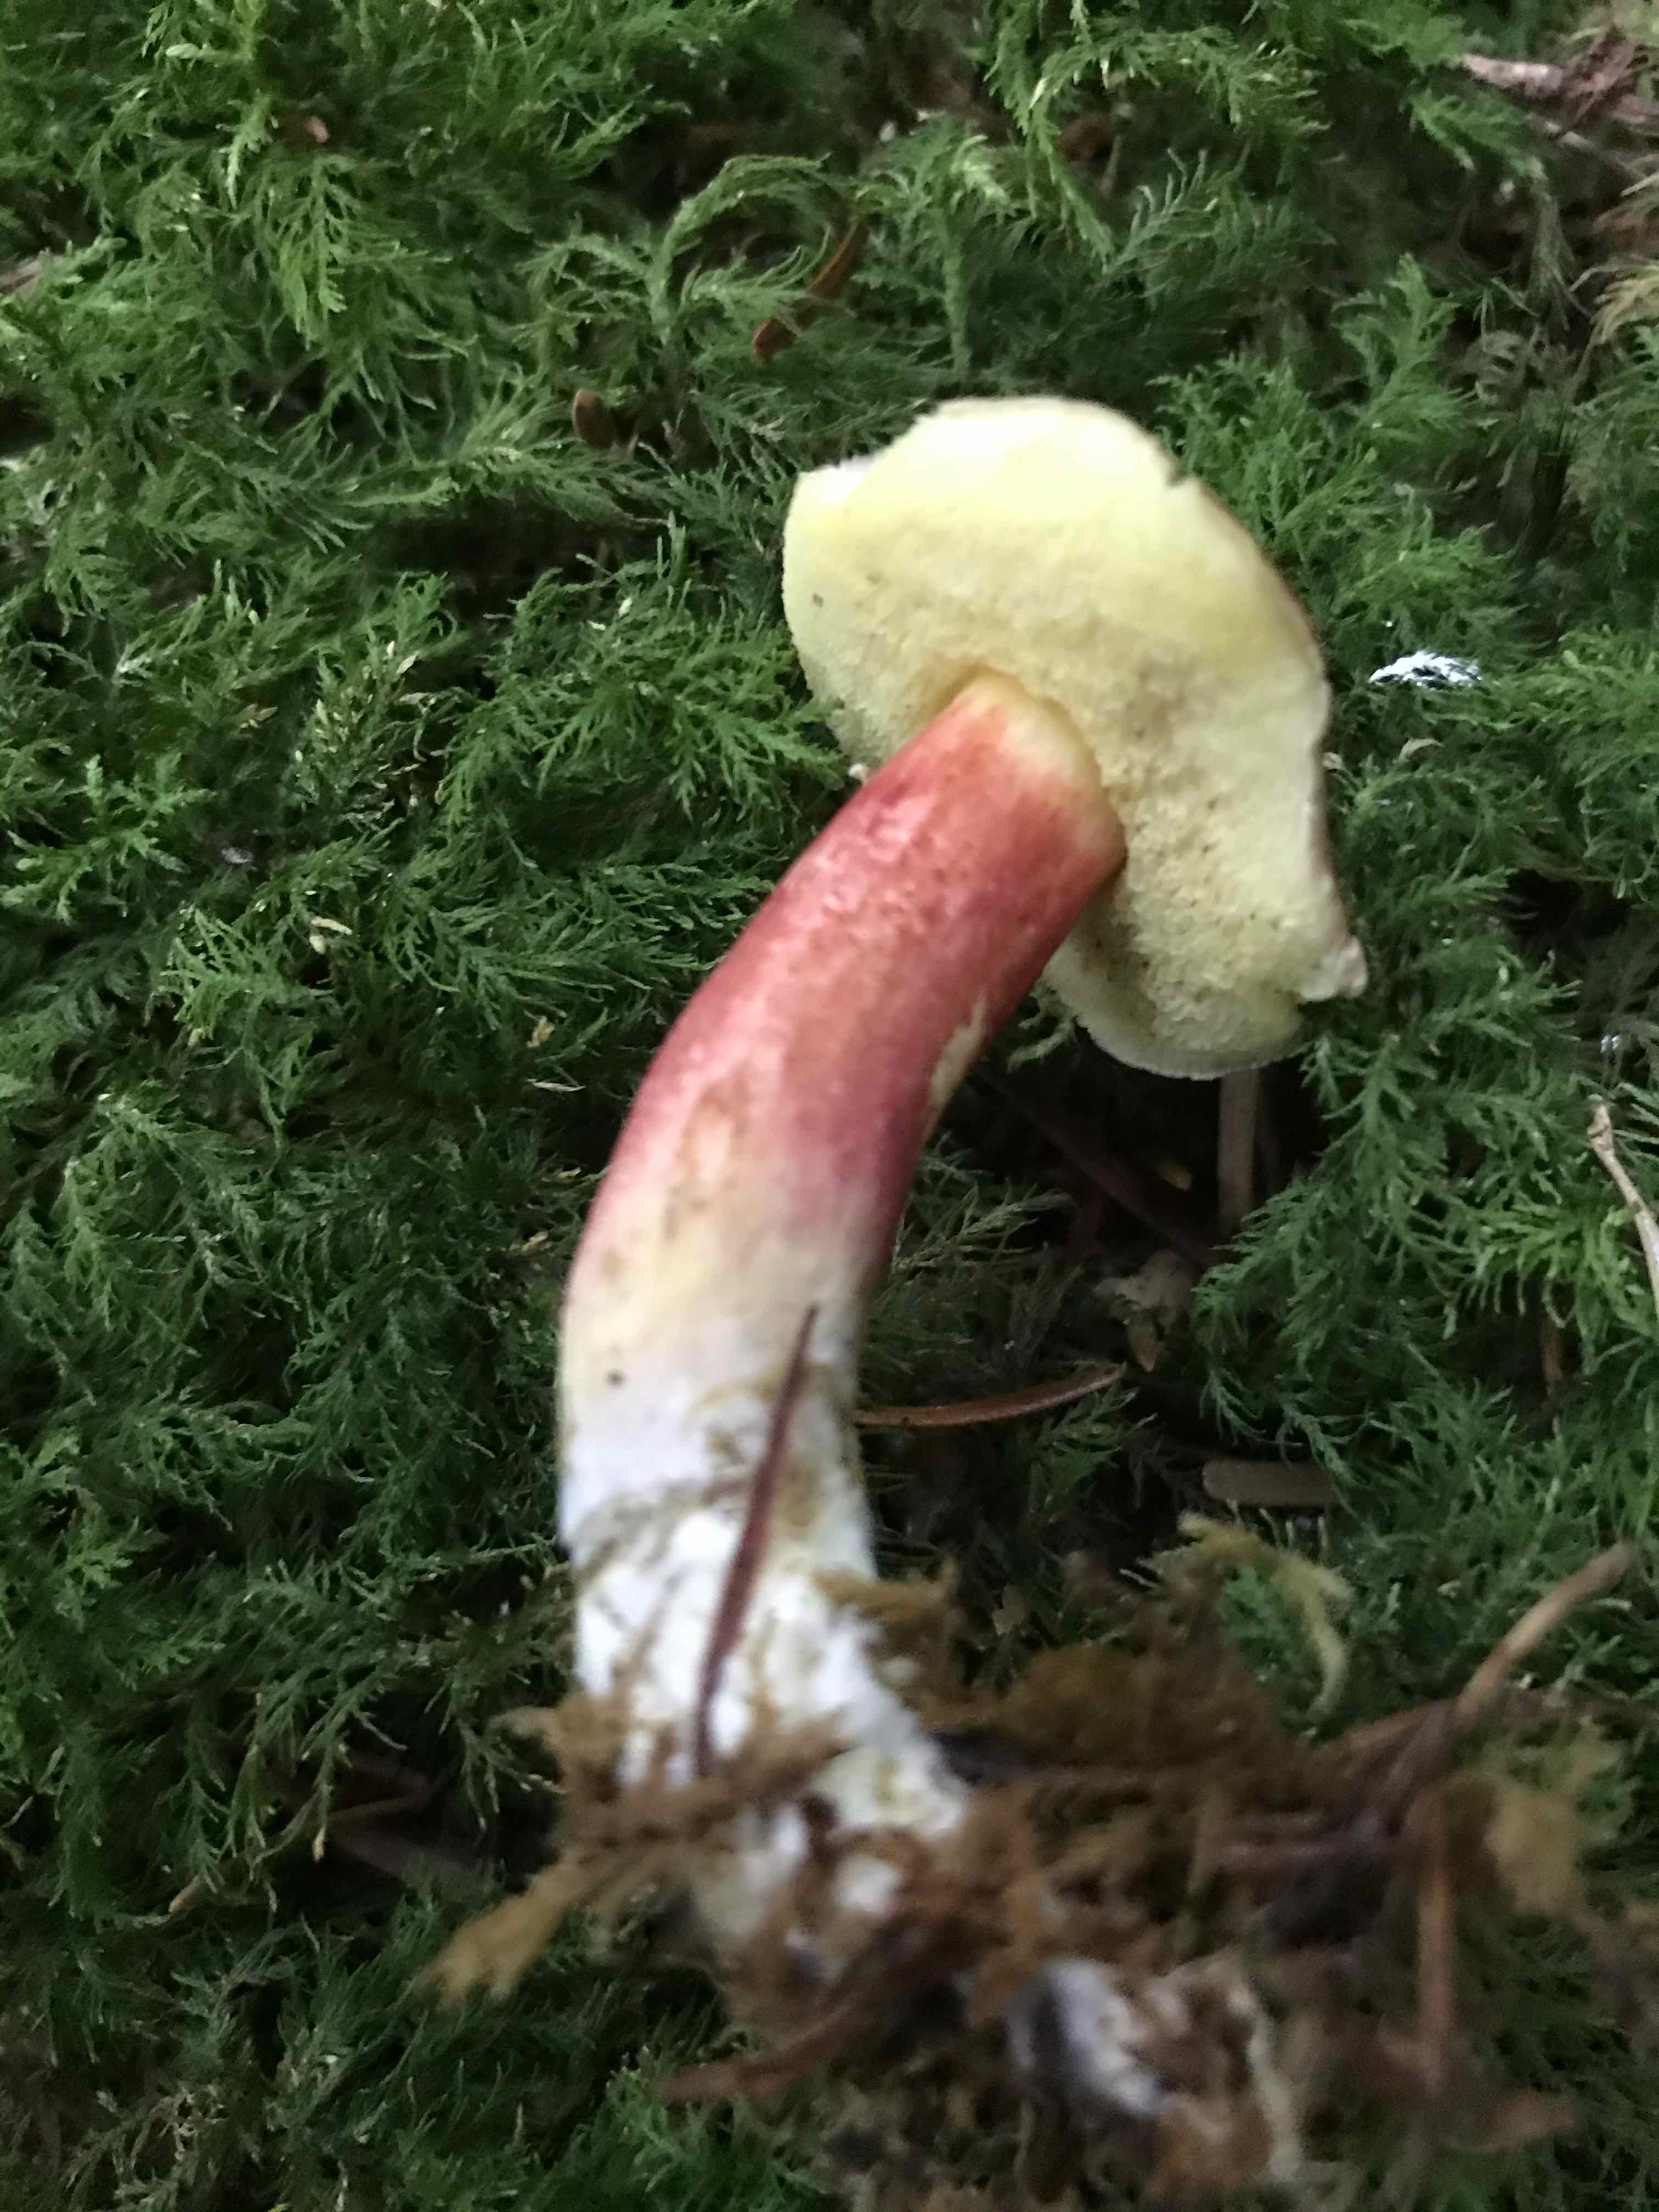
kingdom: Fungi
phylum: Basidiomycota
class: Agaricomycetes
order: Boletales
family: Boletaceae
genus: Xerocomellus
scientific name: Xerocomellus pruinatus
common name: dugget rørhat
